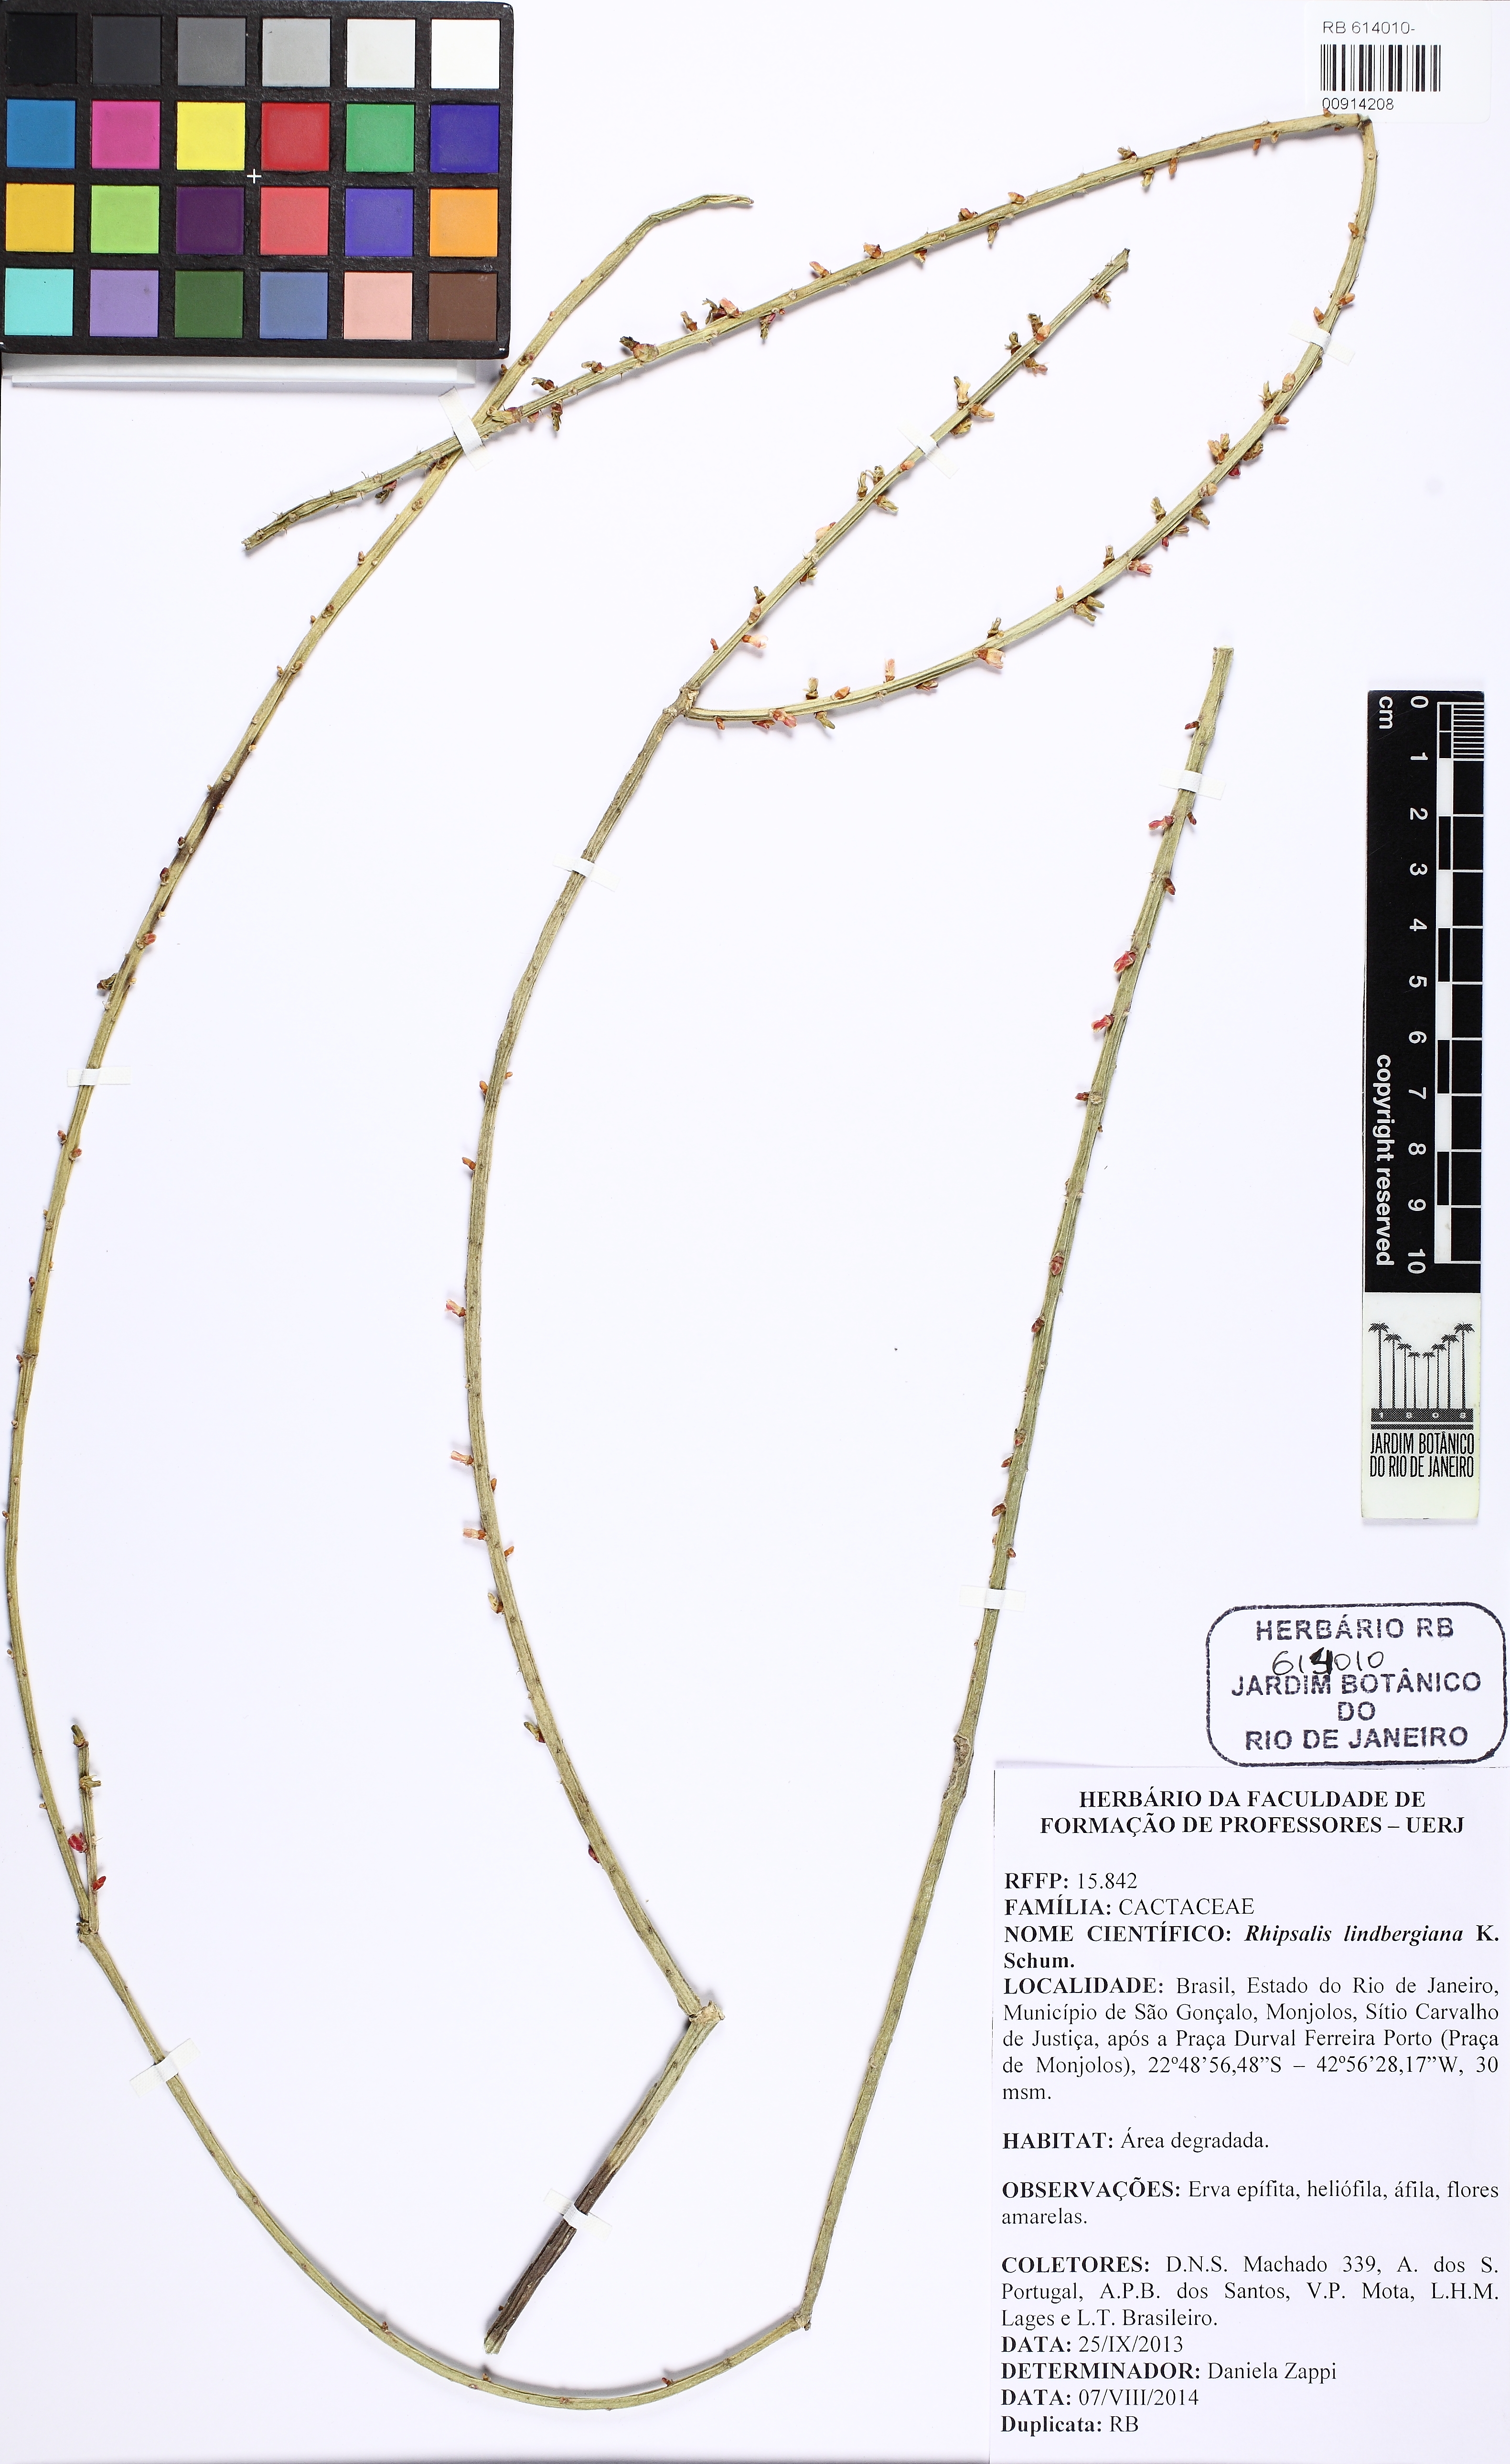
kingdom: Plantae
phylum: Tracheophyta
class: Magnoliopsida
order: Caryophyllales
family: Cactaceae
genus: Rhipsalis
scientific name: Rhipsalis lindbergiana
